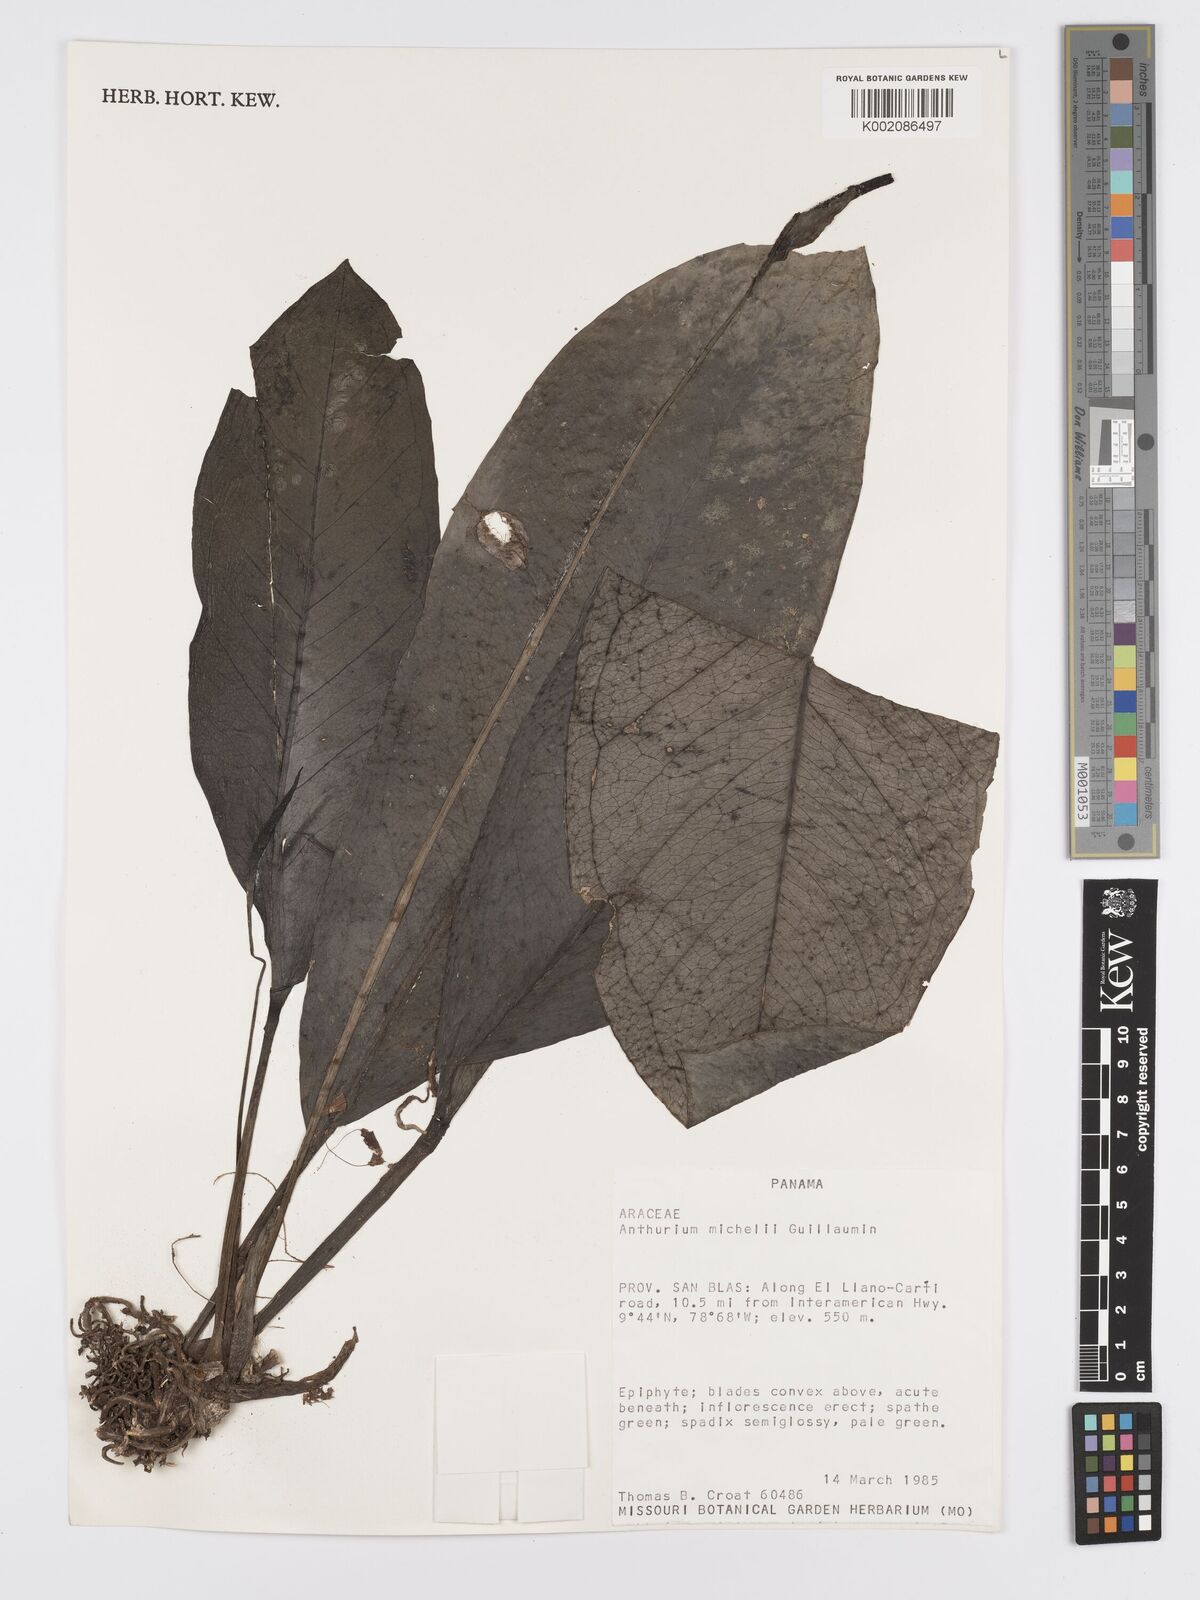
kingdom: Plantae
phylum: Tracheophyta
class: Liliopsida
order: Alismatales
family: Araceae
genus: Anthurium
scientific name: Anthurium michelii
